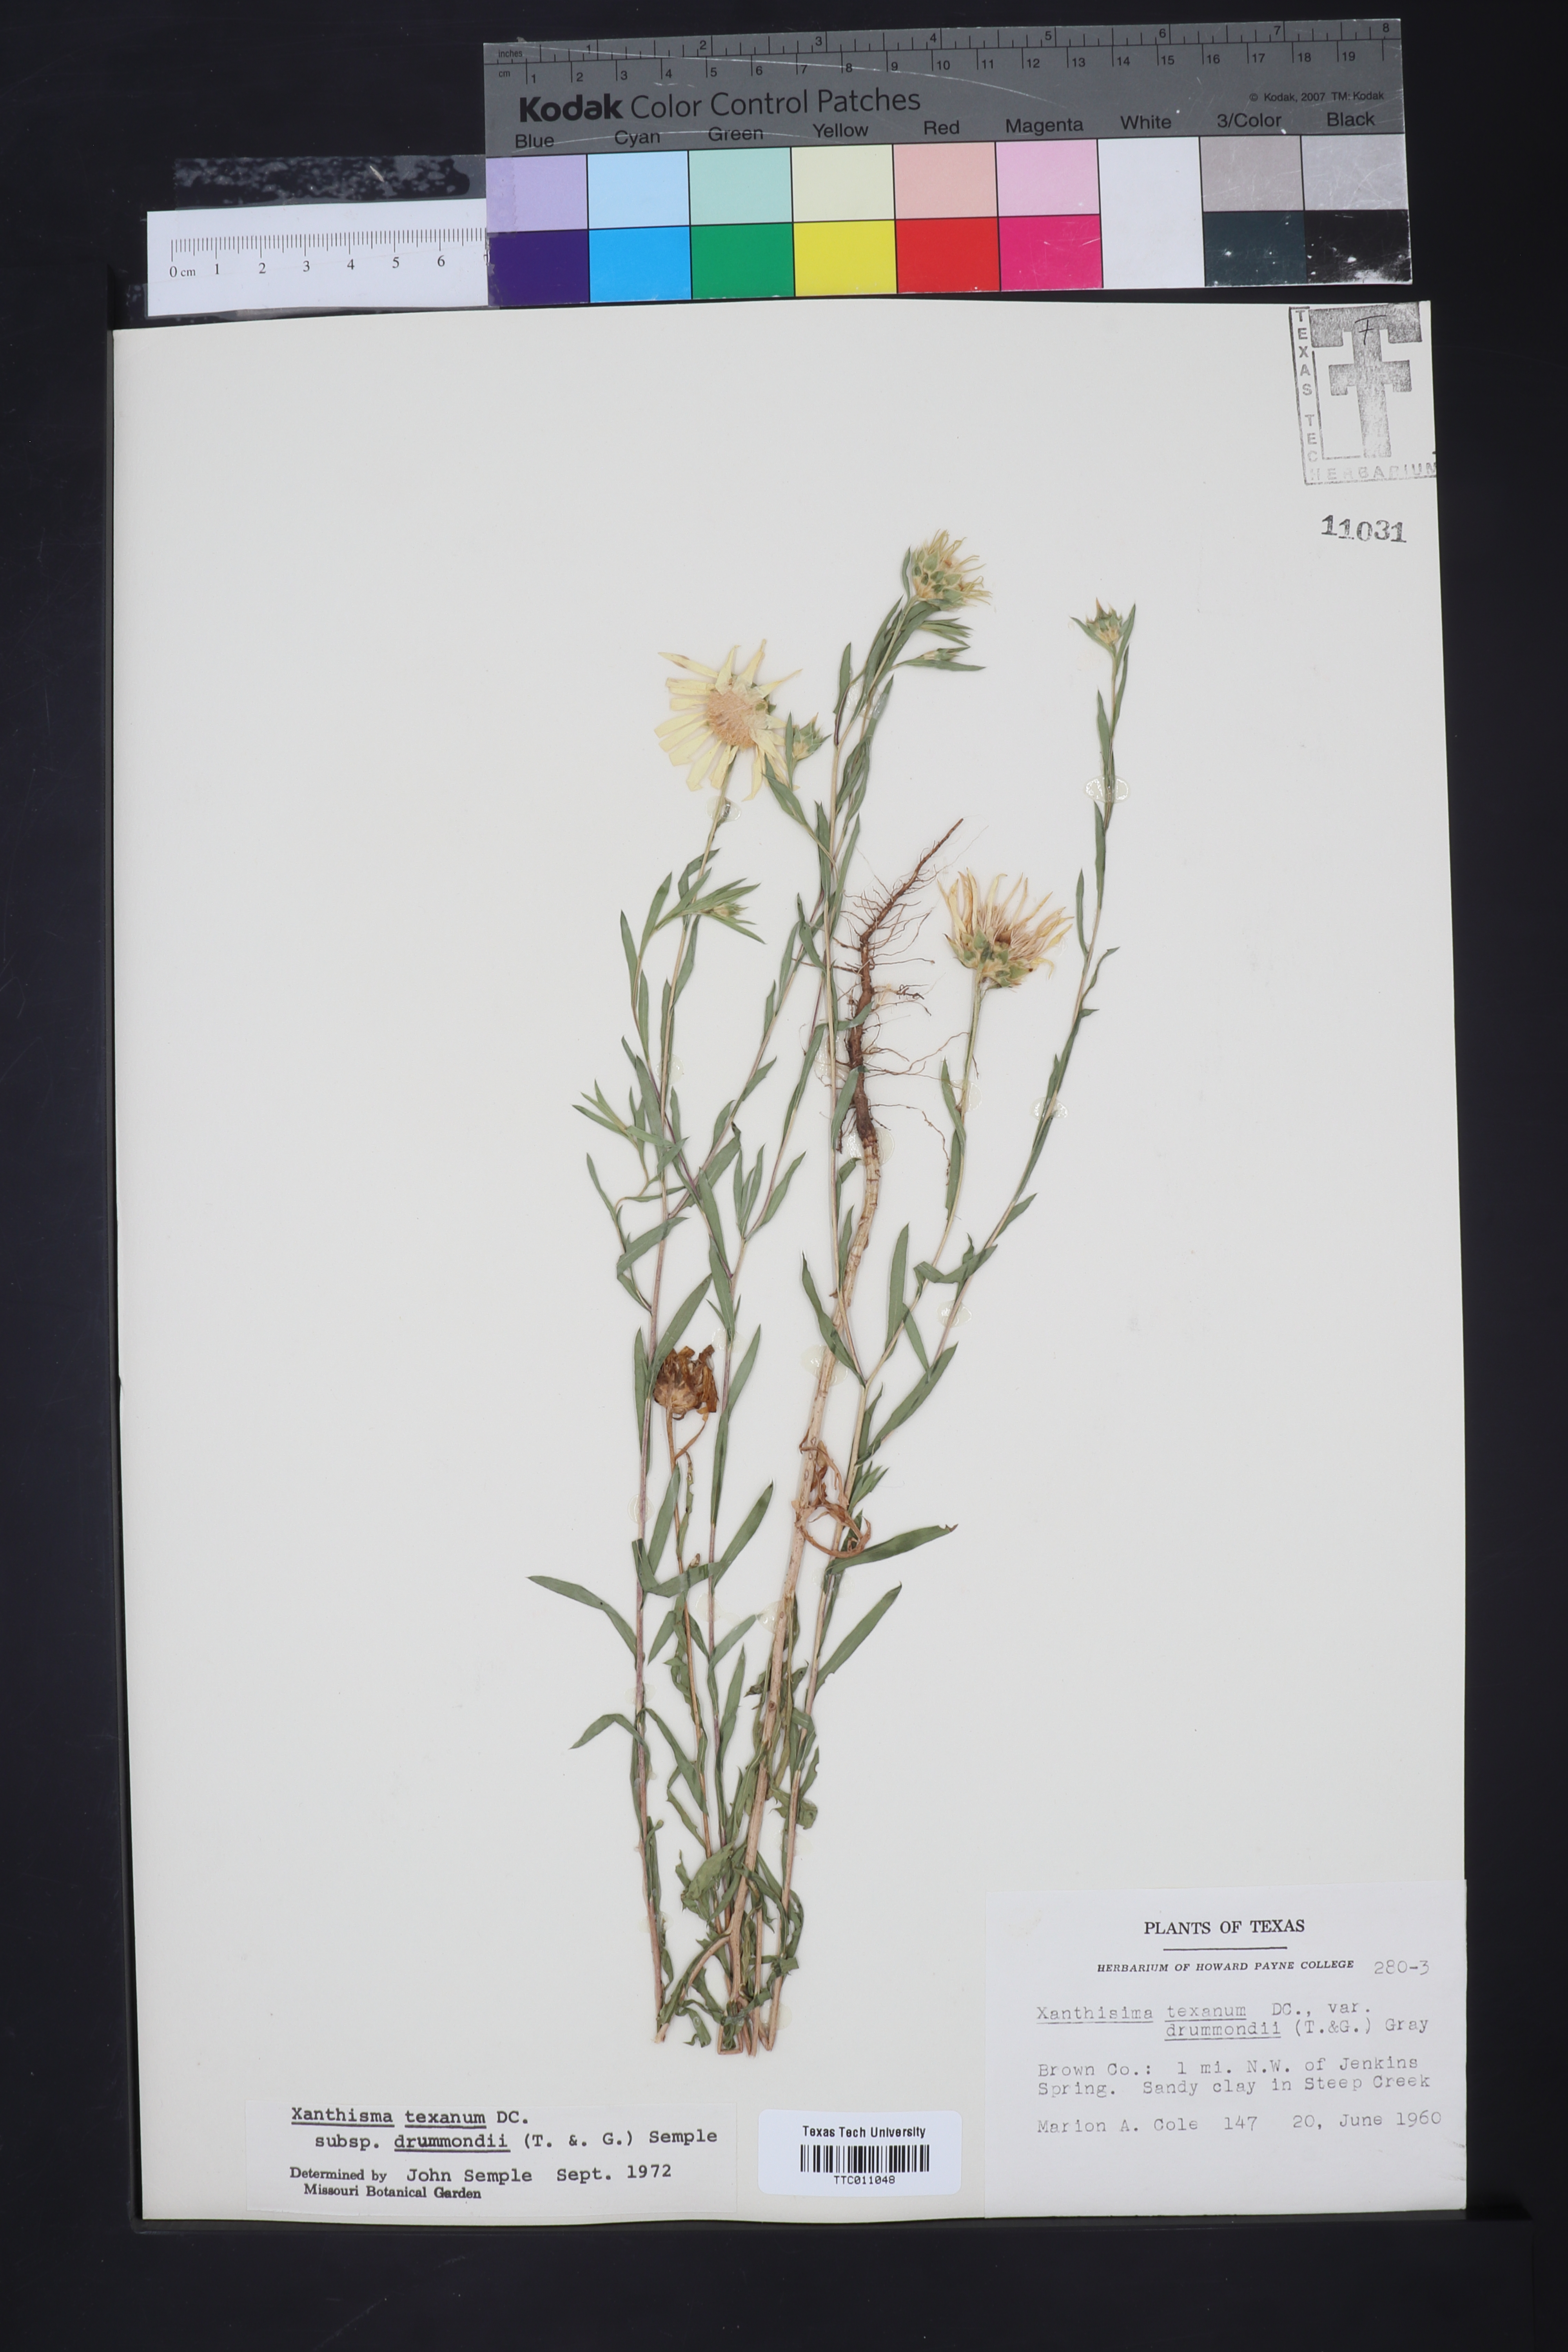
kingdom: Plantae
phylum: Tracheophyta
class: Magnoliopsida
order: Asterales
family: Asteraceae
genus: Xanthisma
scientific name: Xanthisma texanum
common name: Texas sleepy daisy
